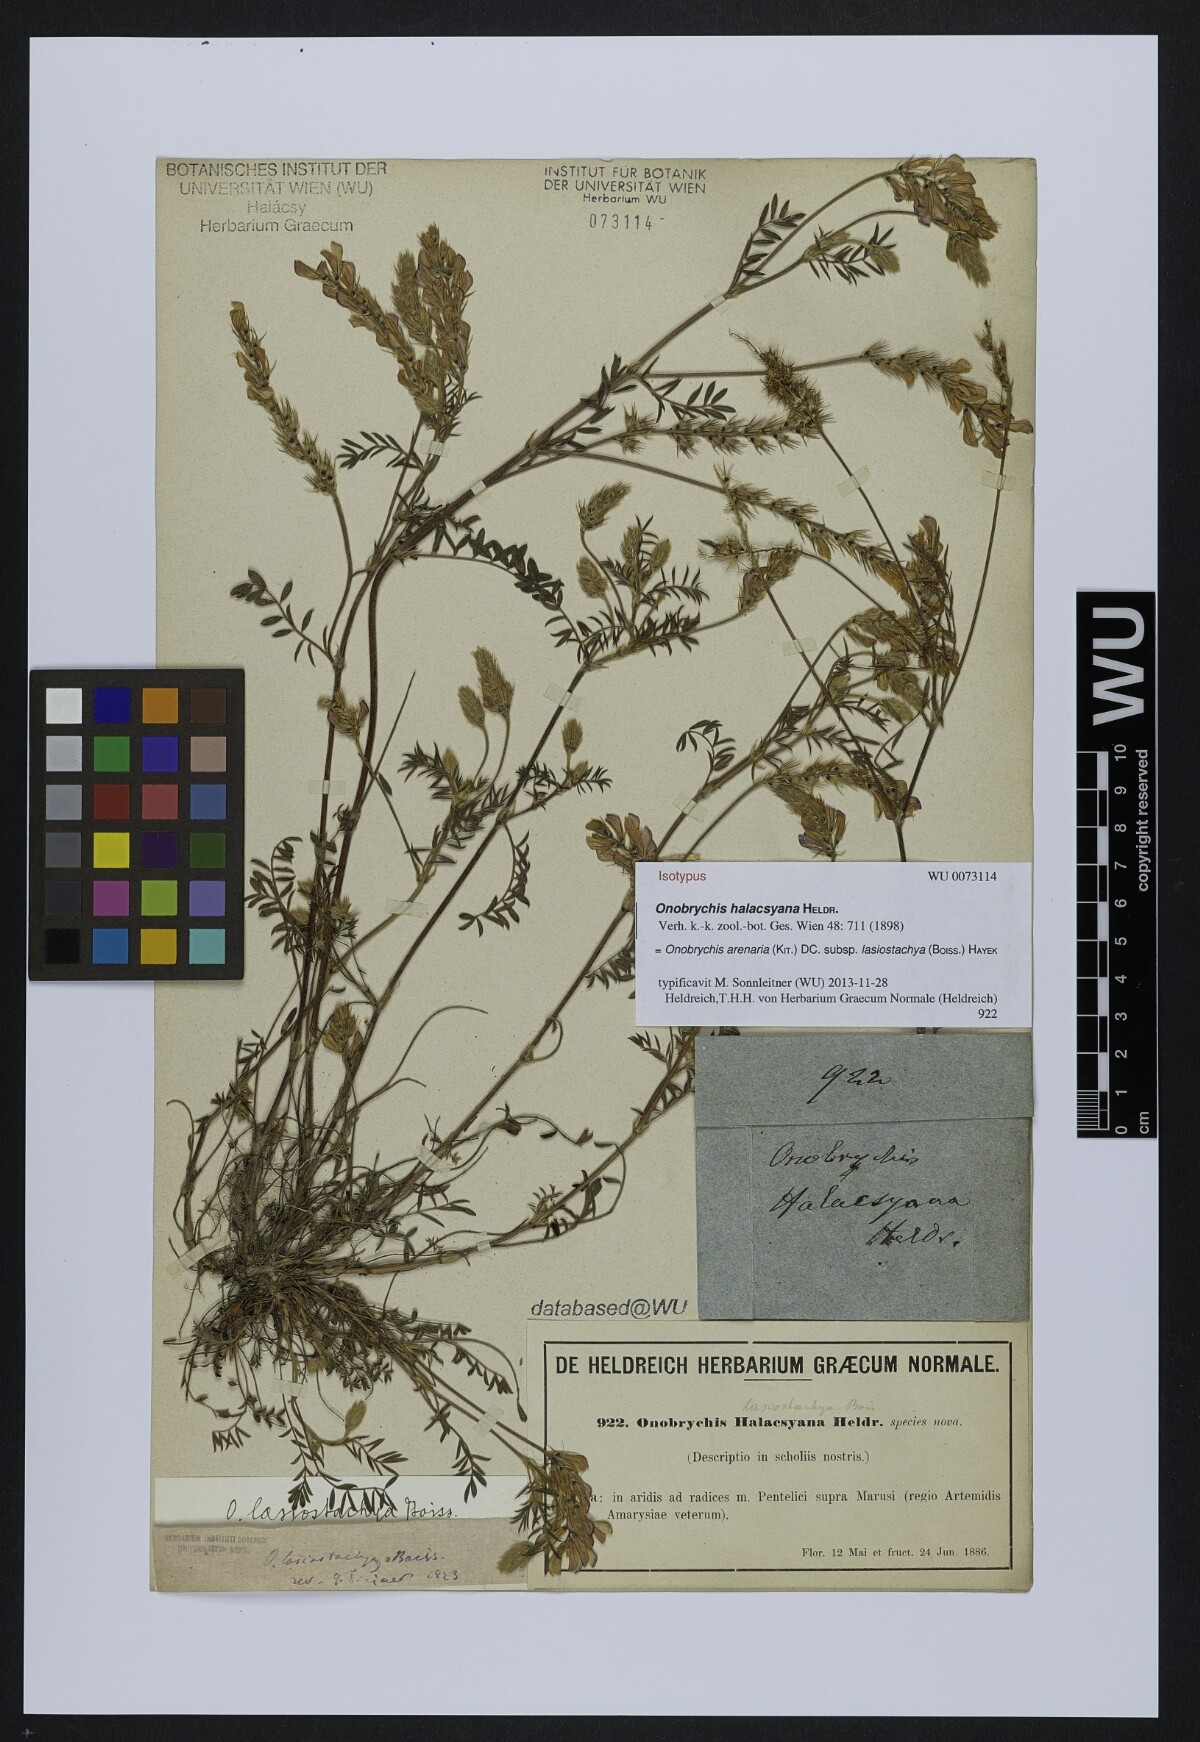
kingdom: Plantae
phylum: Tracheophyta
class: Magnoliopsida
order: Fabales
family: Fabaceae
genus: Onobrychis
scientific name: Onobrychis montana
